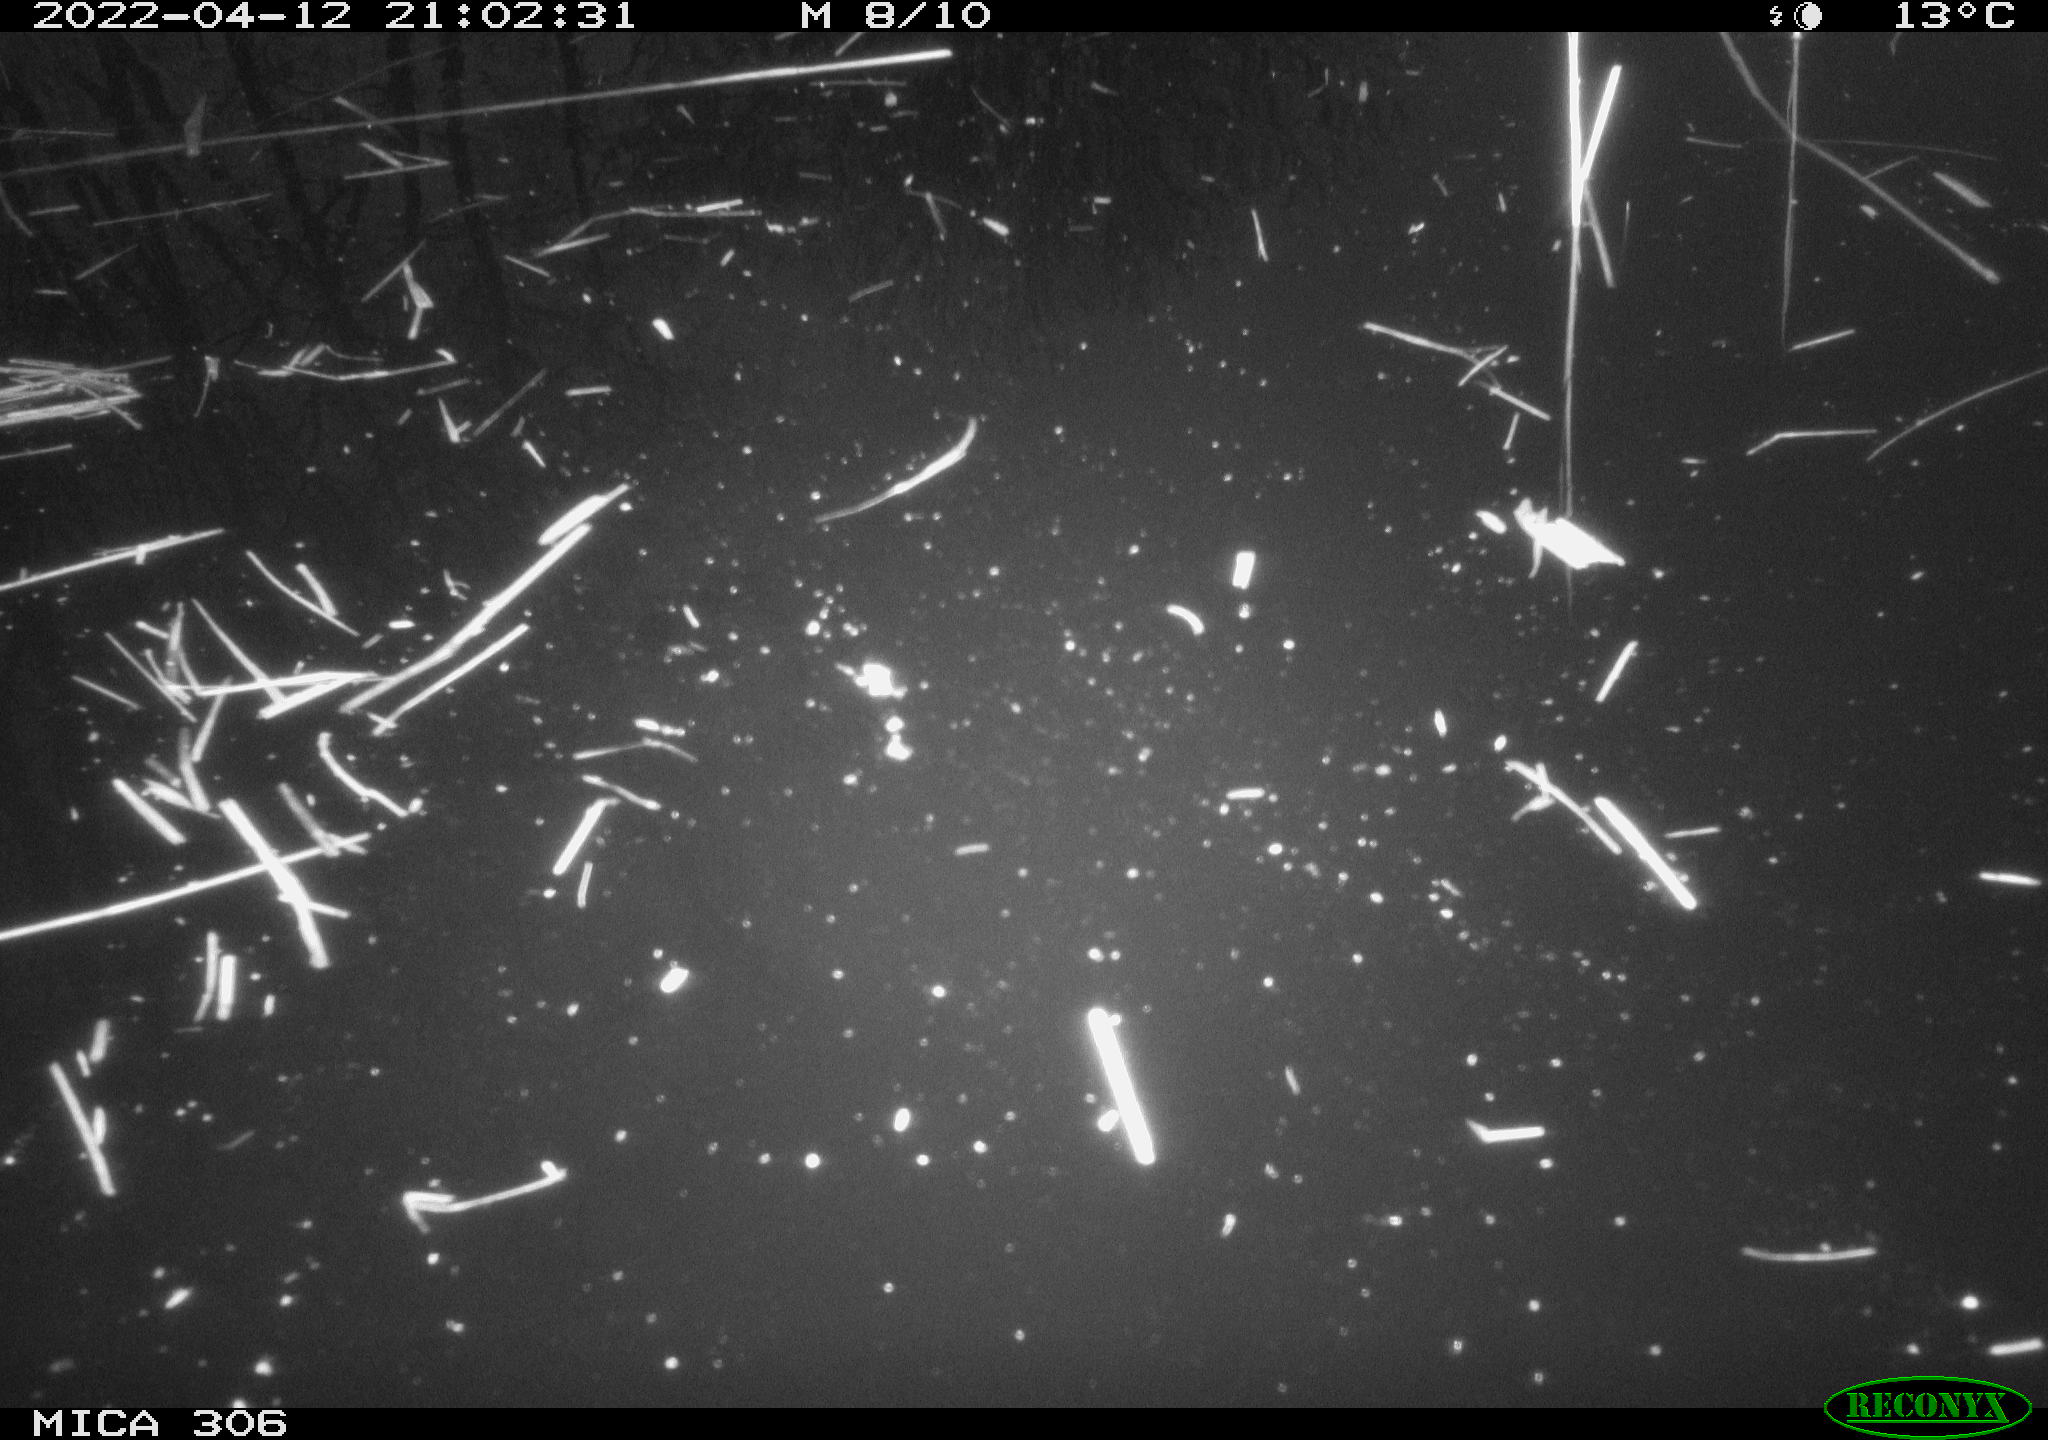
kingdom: Animalia
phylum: Chordata
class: Aves
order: Anseriformes
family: Anatidae
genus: Anas
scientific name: Anas platyrhynchos
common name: Mallard
